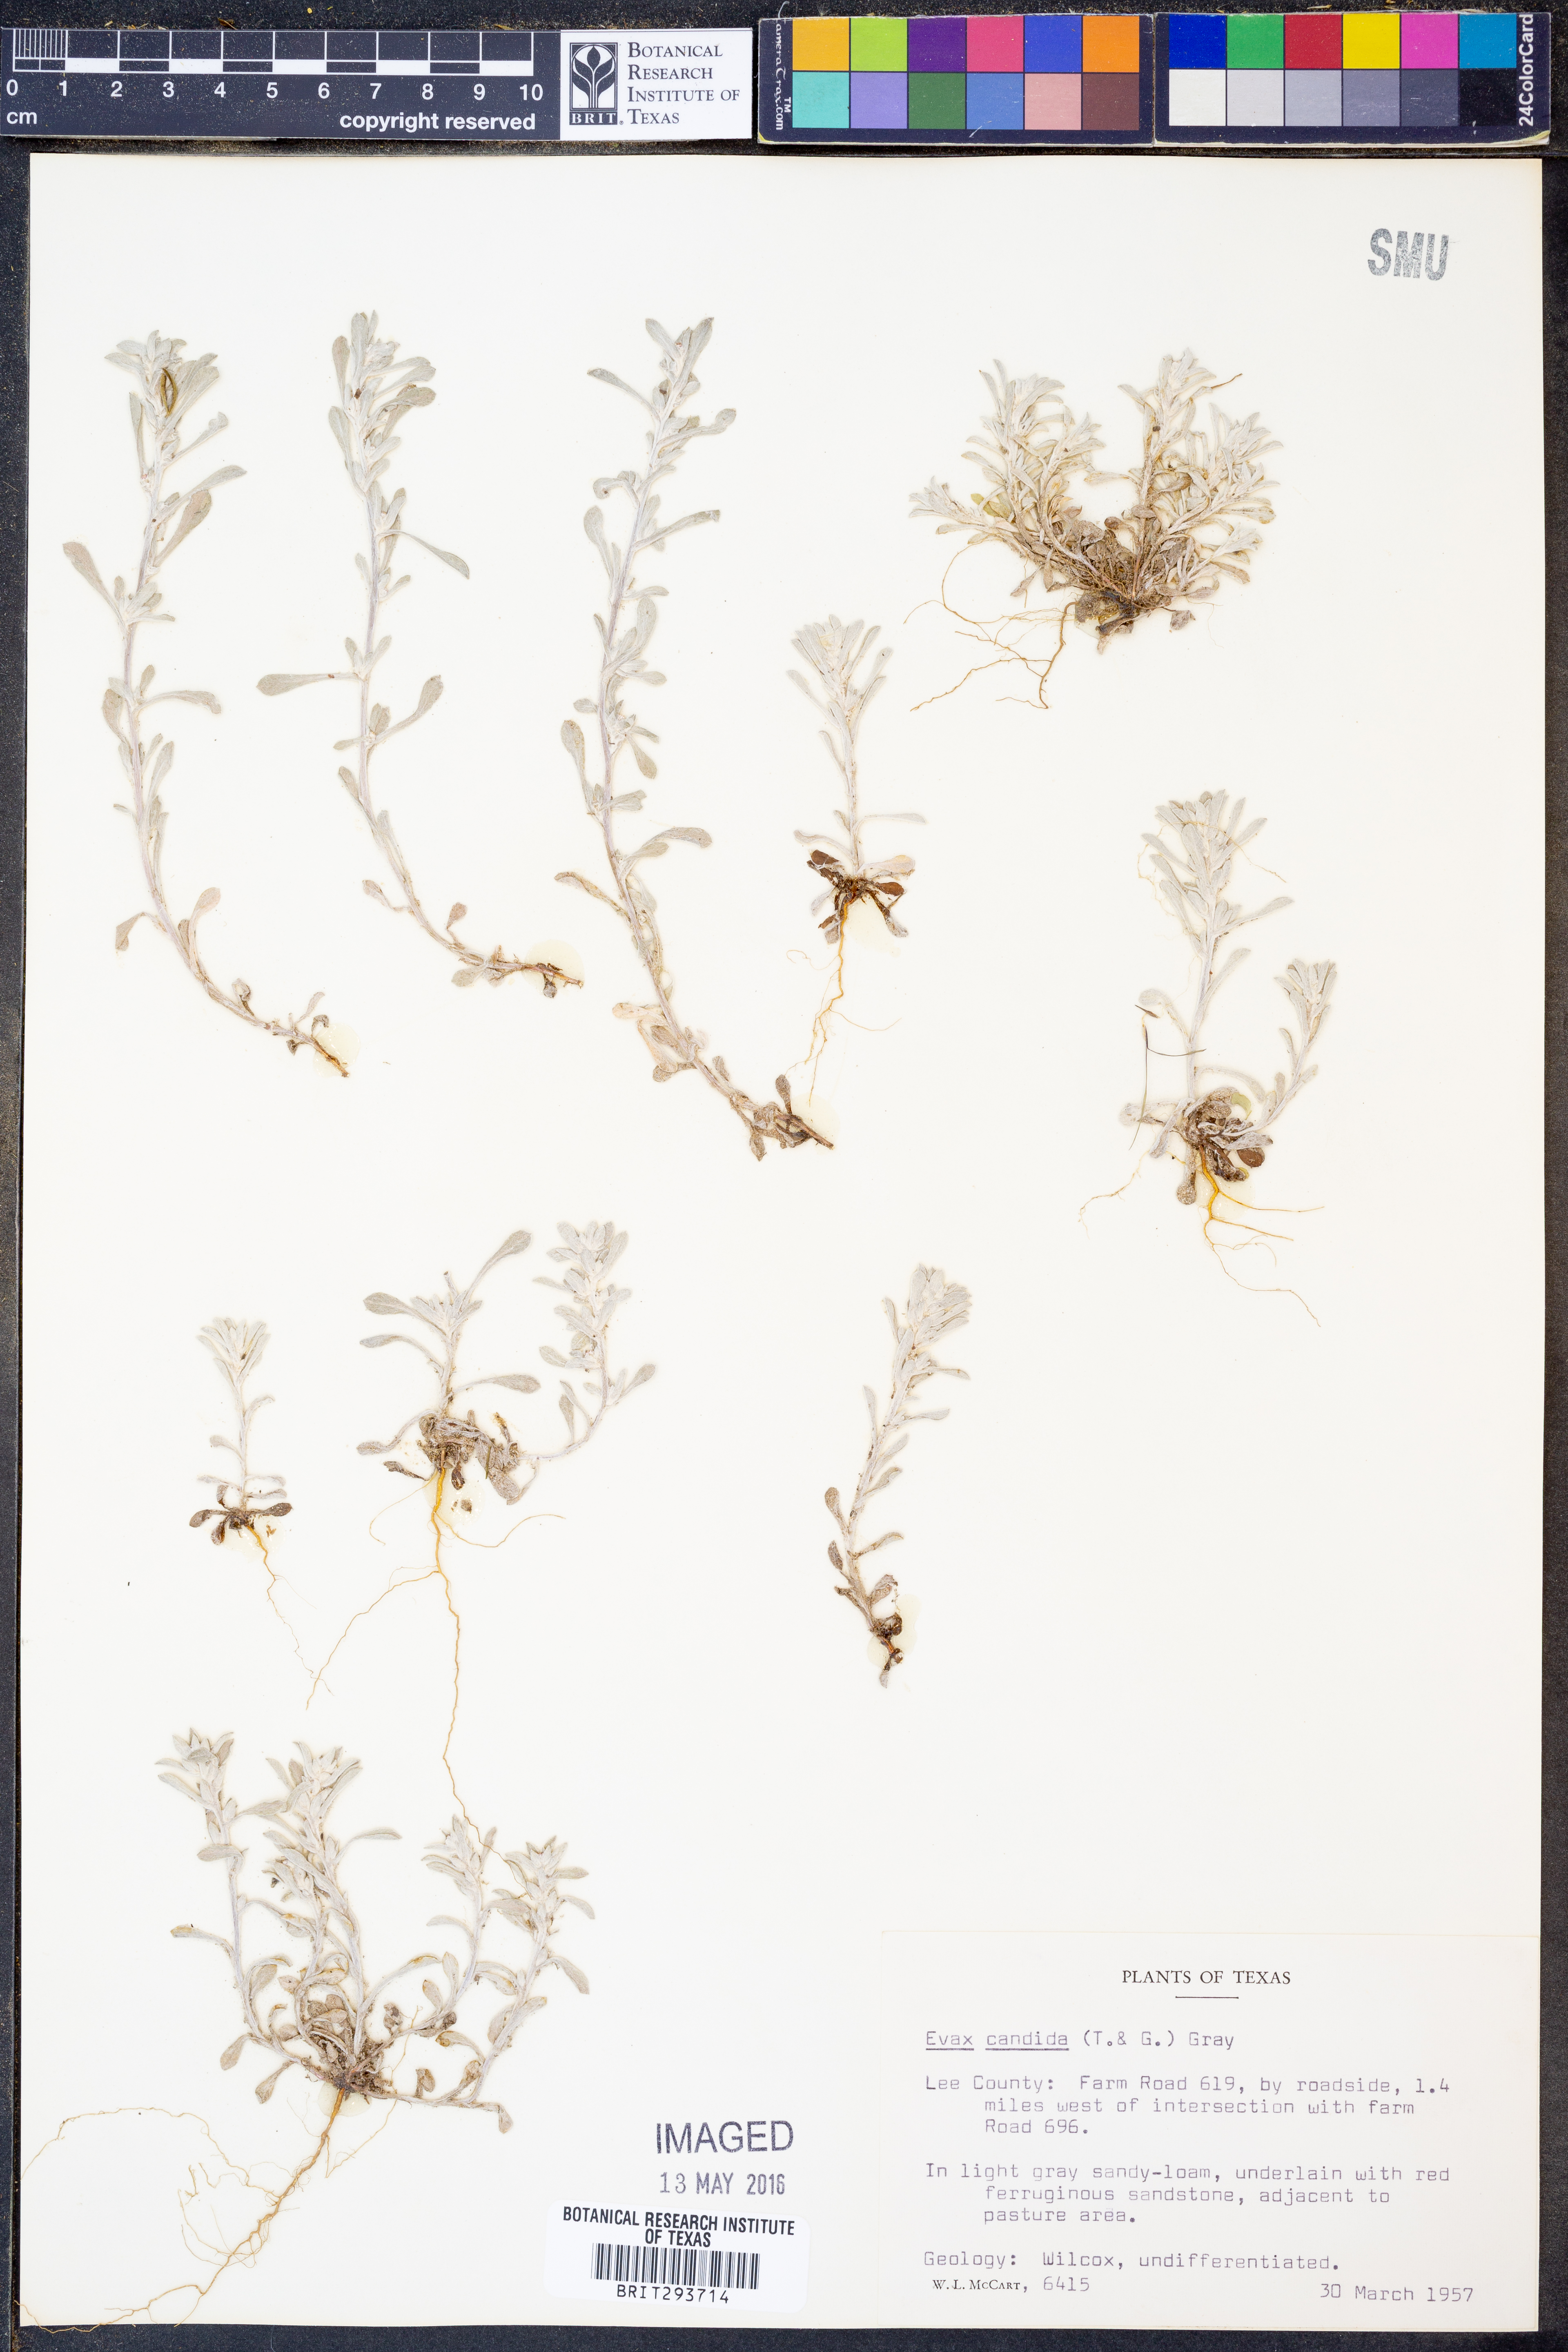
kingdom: Plantae
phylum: Tracheophyta
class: Magnoliopsida
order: Asterales
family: Asteraceae
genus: Diaperia
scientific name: Diaperia candida
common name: Silver rabbit-tobacco
